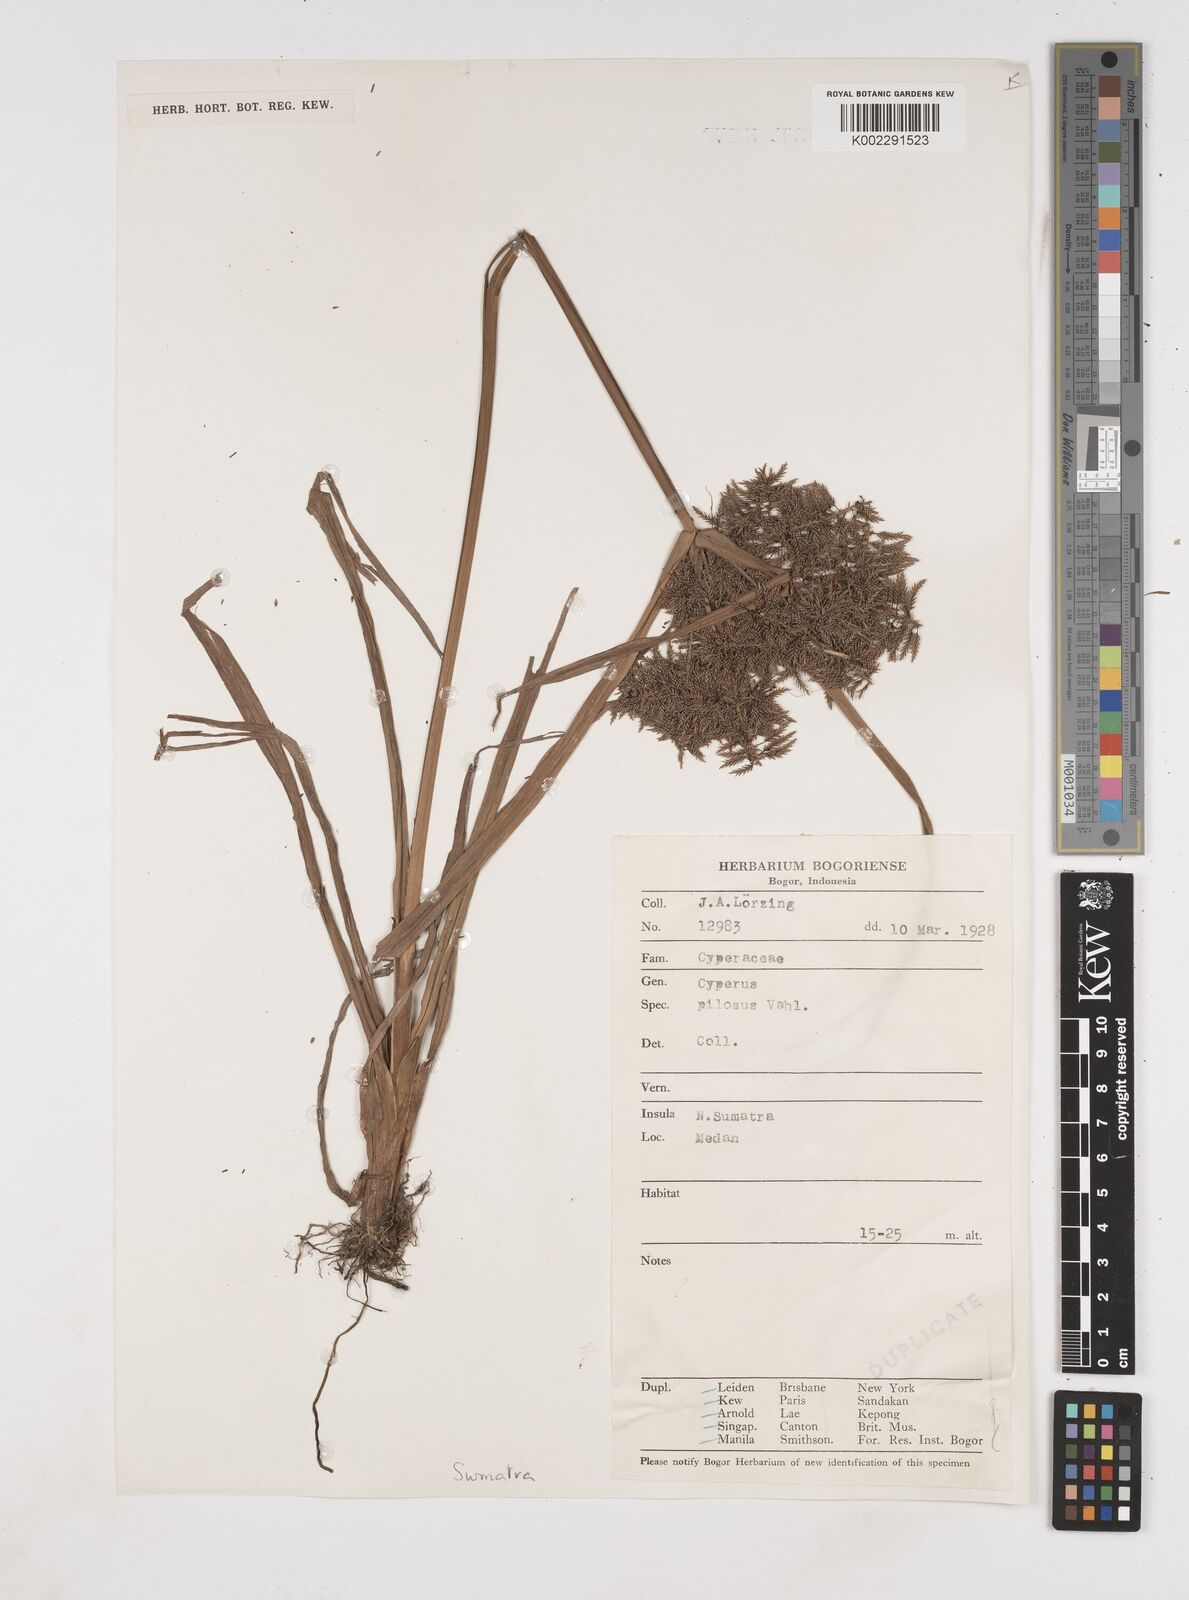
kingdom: Plantae
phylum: Tracheophyta
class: Liliopsida
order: Poales
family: Cyperaceae
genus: Cyperus
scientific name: Cyperus pilosus
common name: Fuzzy flatsedge
